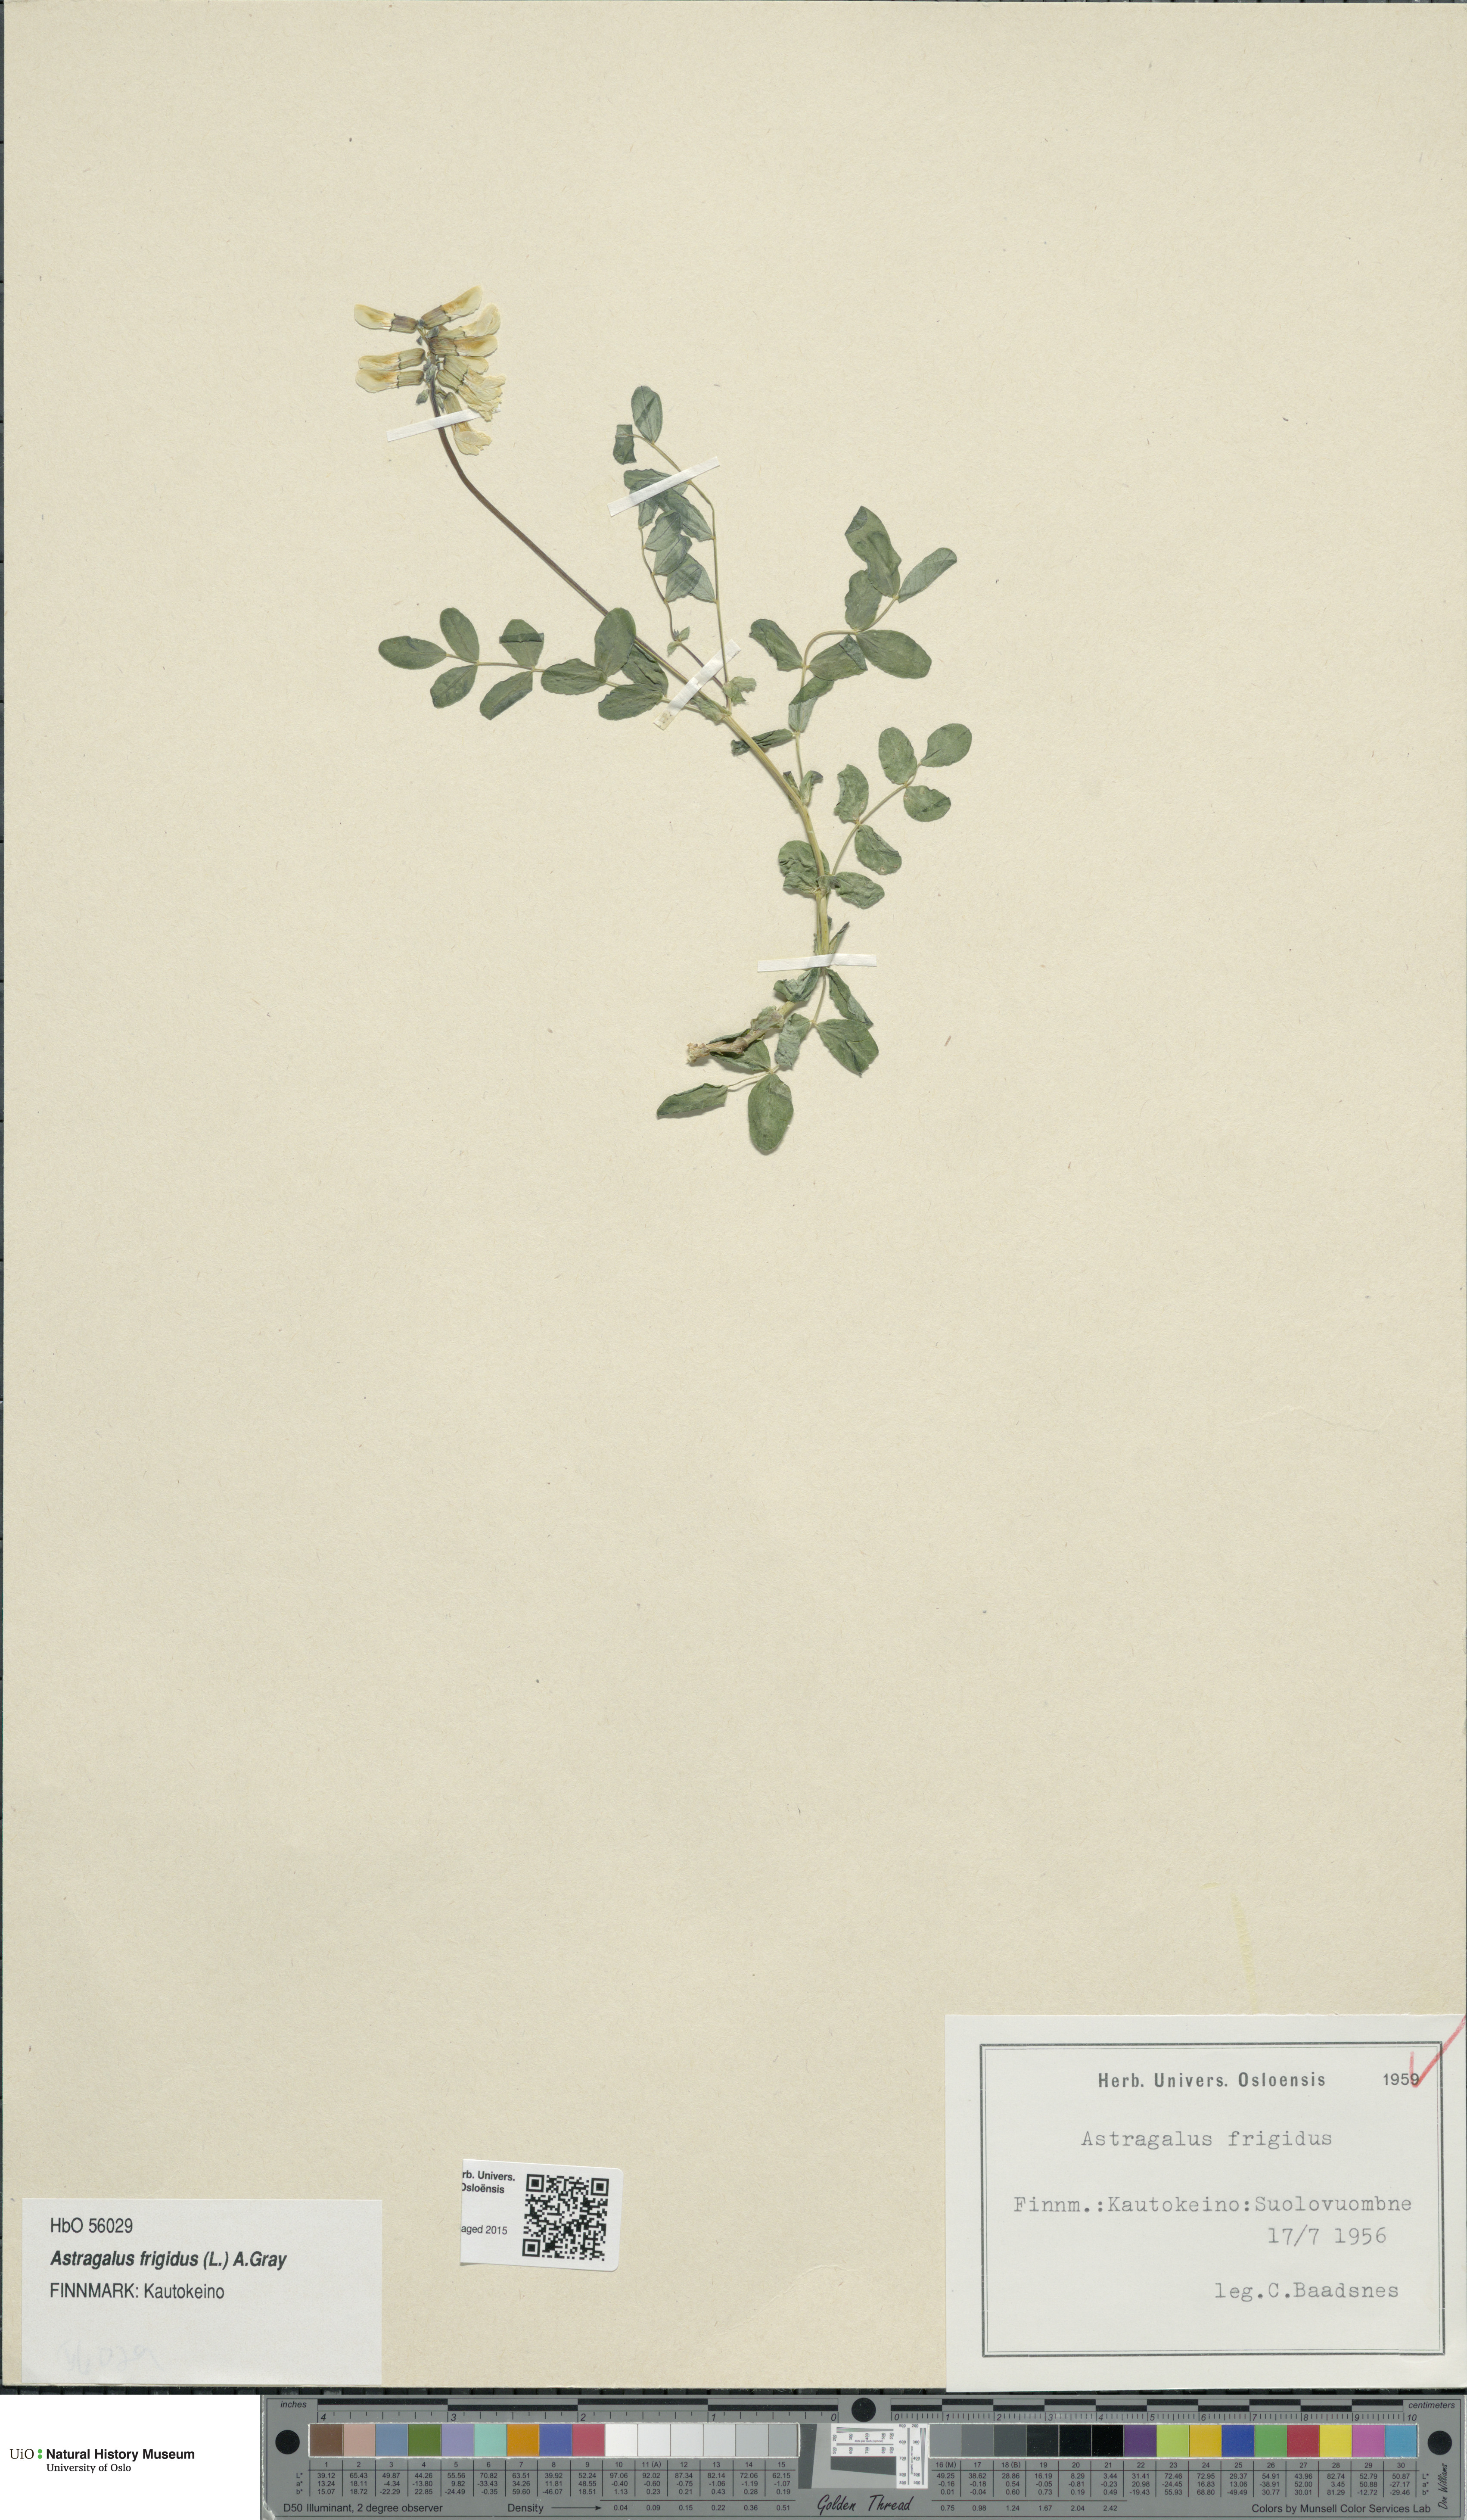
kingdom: Plantae
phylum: Tracheophyta
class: Magnoliopsida
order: Fabales
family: Fabaceae
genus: Astragalus
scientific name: Astragalus frigidus
